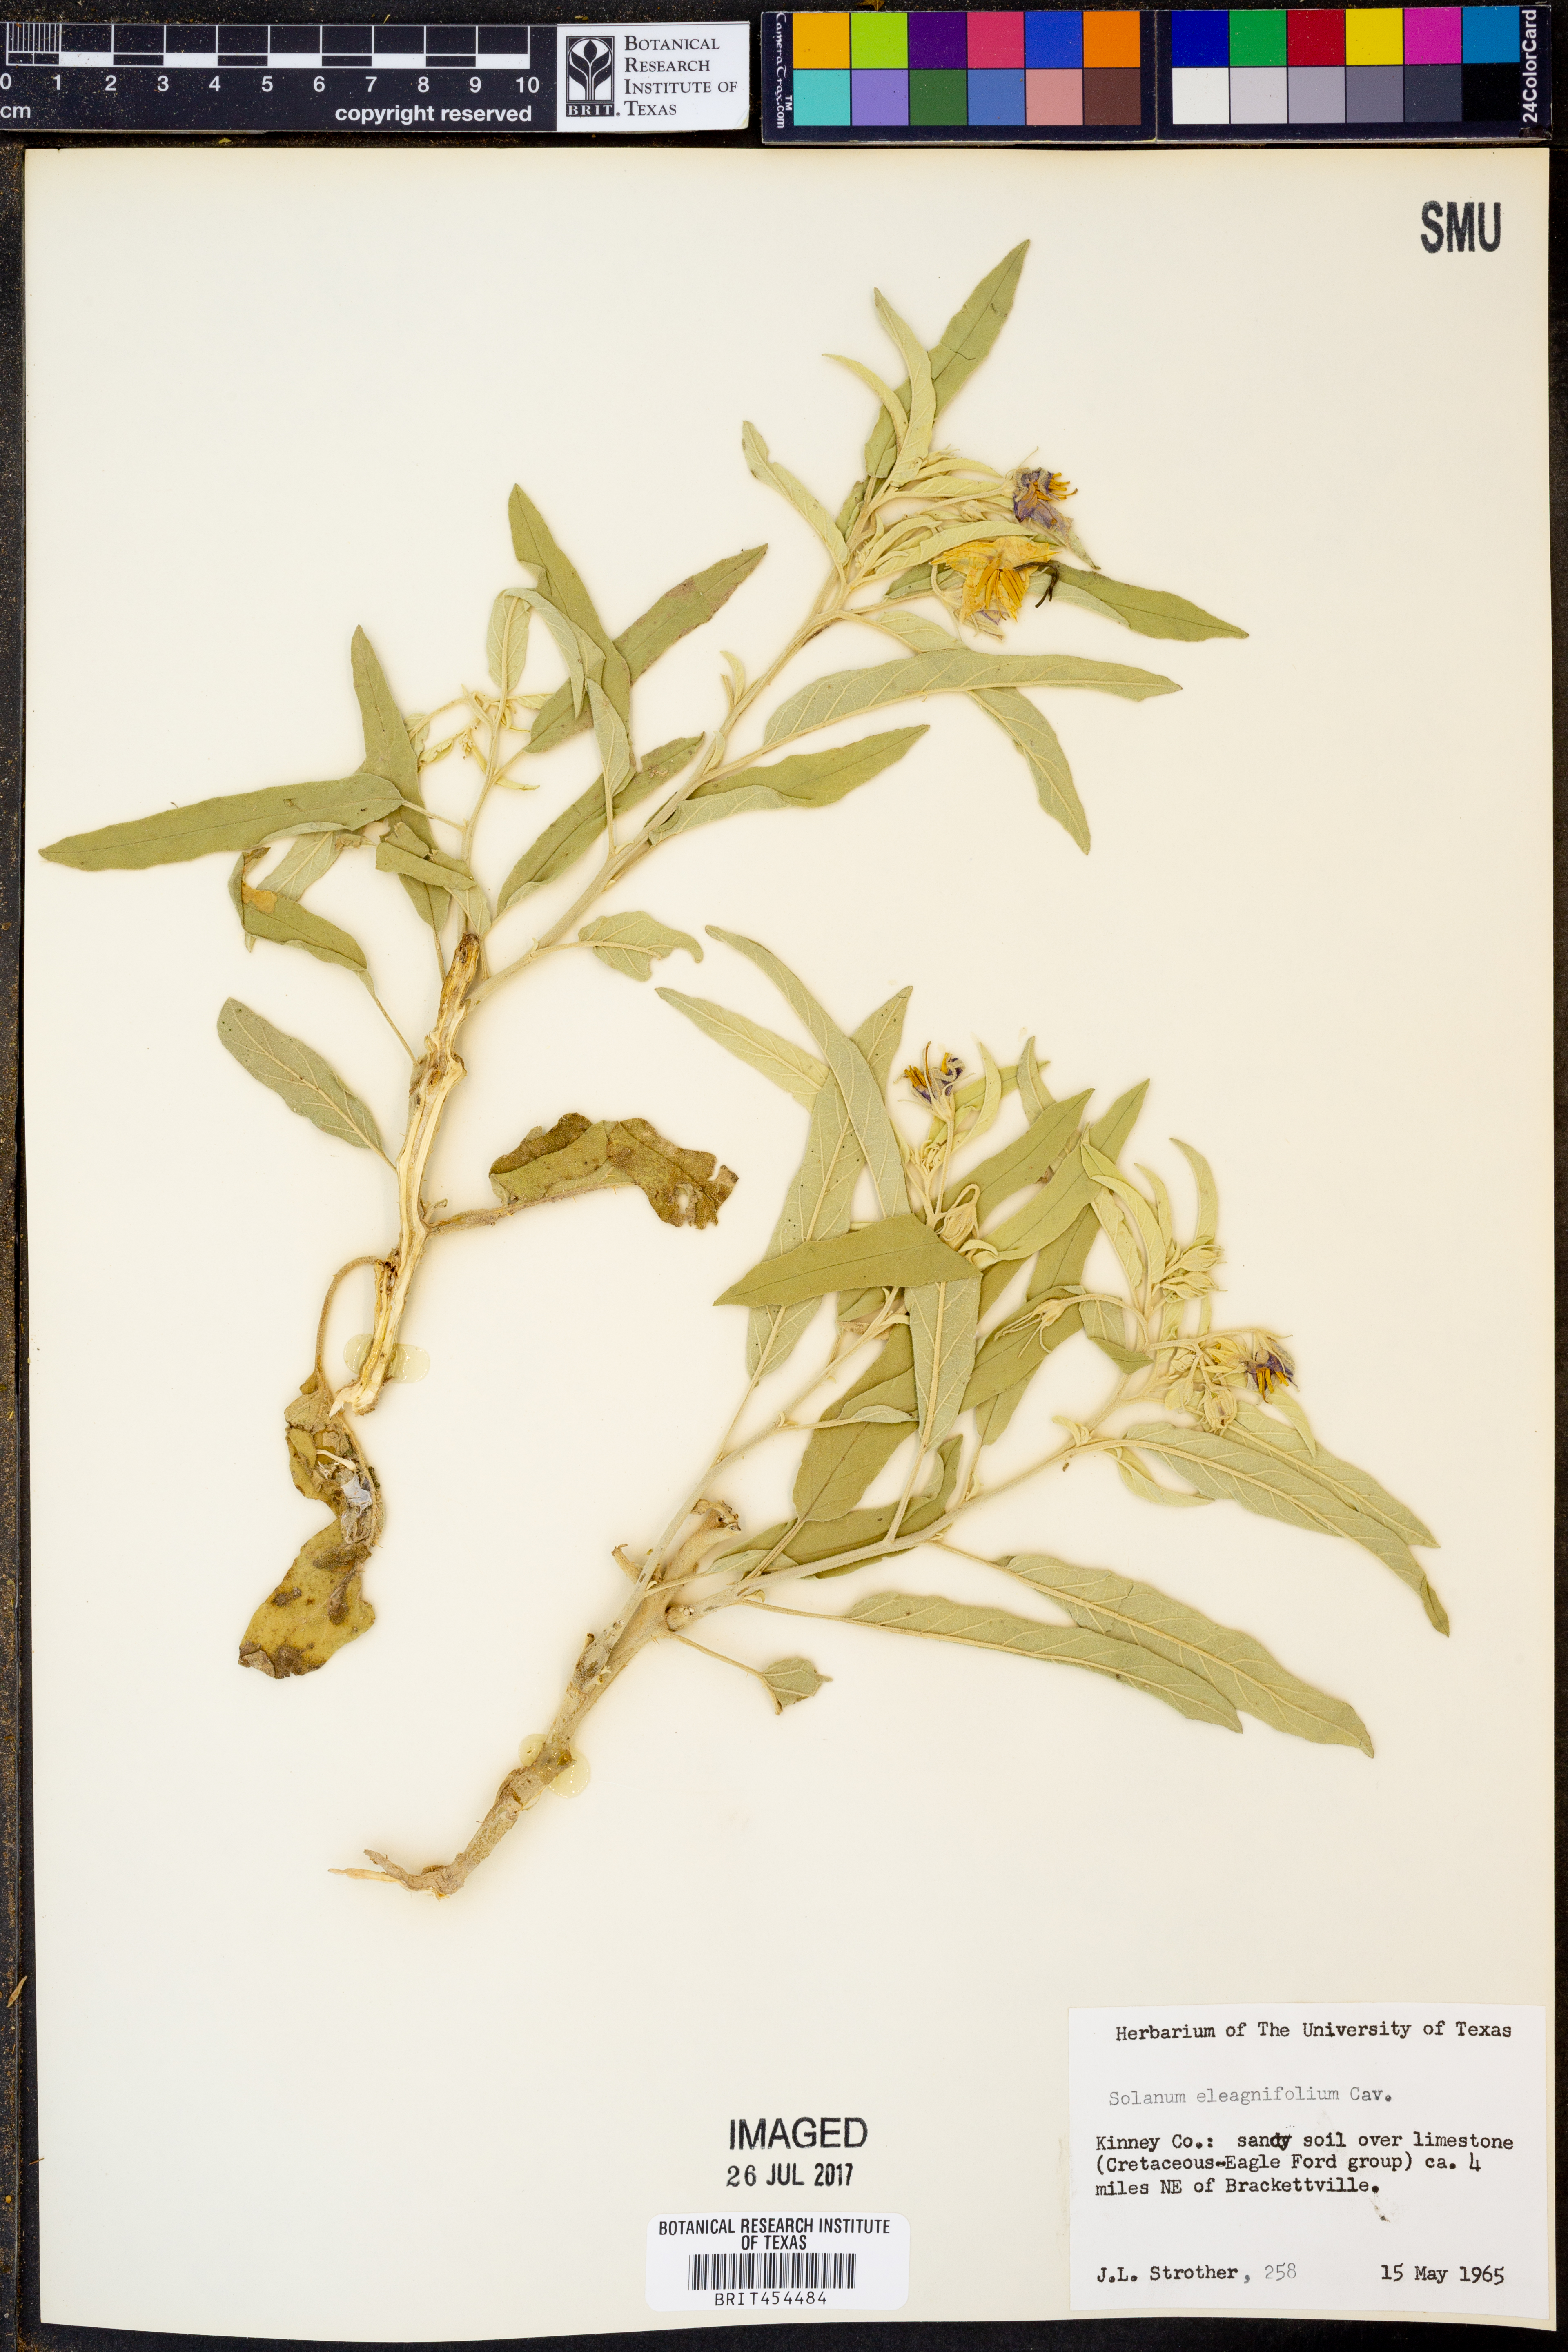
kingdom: Plantae
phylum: Tracheophyta
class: Magnoliopsida
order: Solanales
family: Solanaceae
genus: Solanum
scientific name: Solanum elaeagnifolium
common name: Silverleaf nightshade
